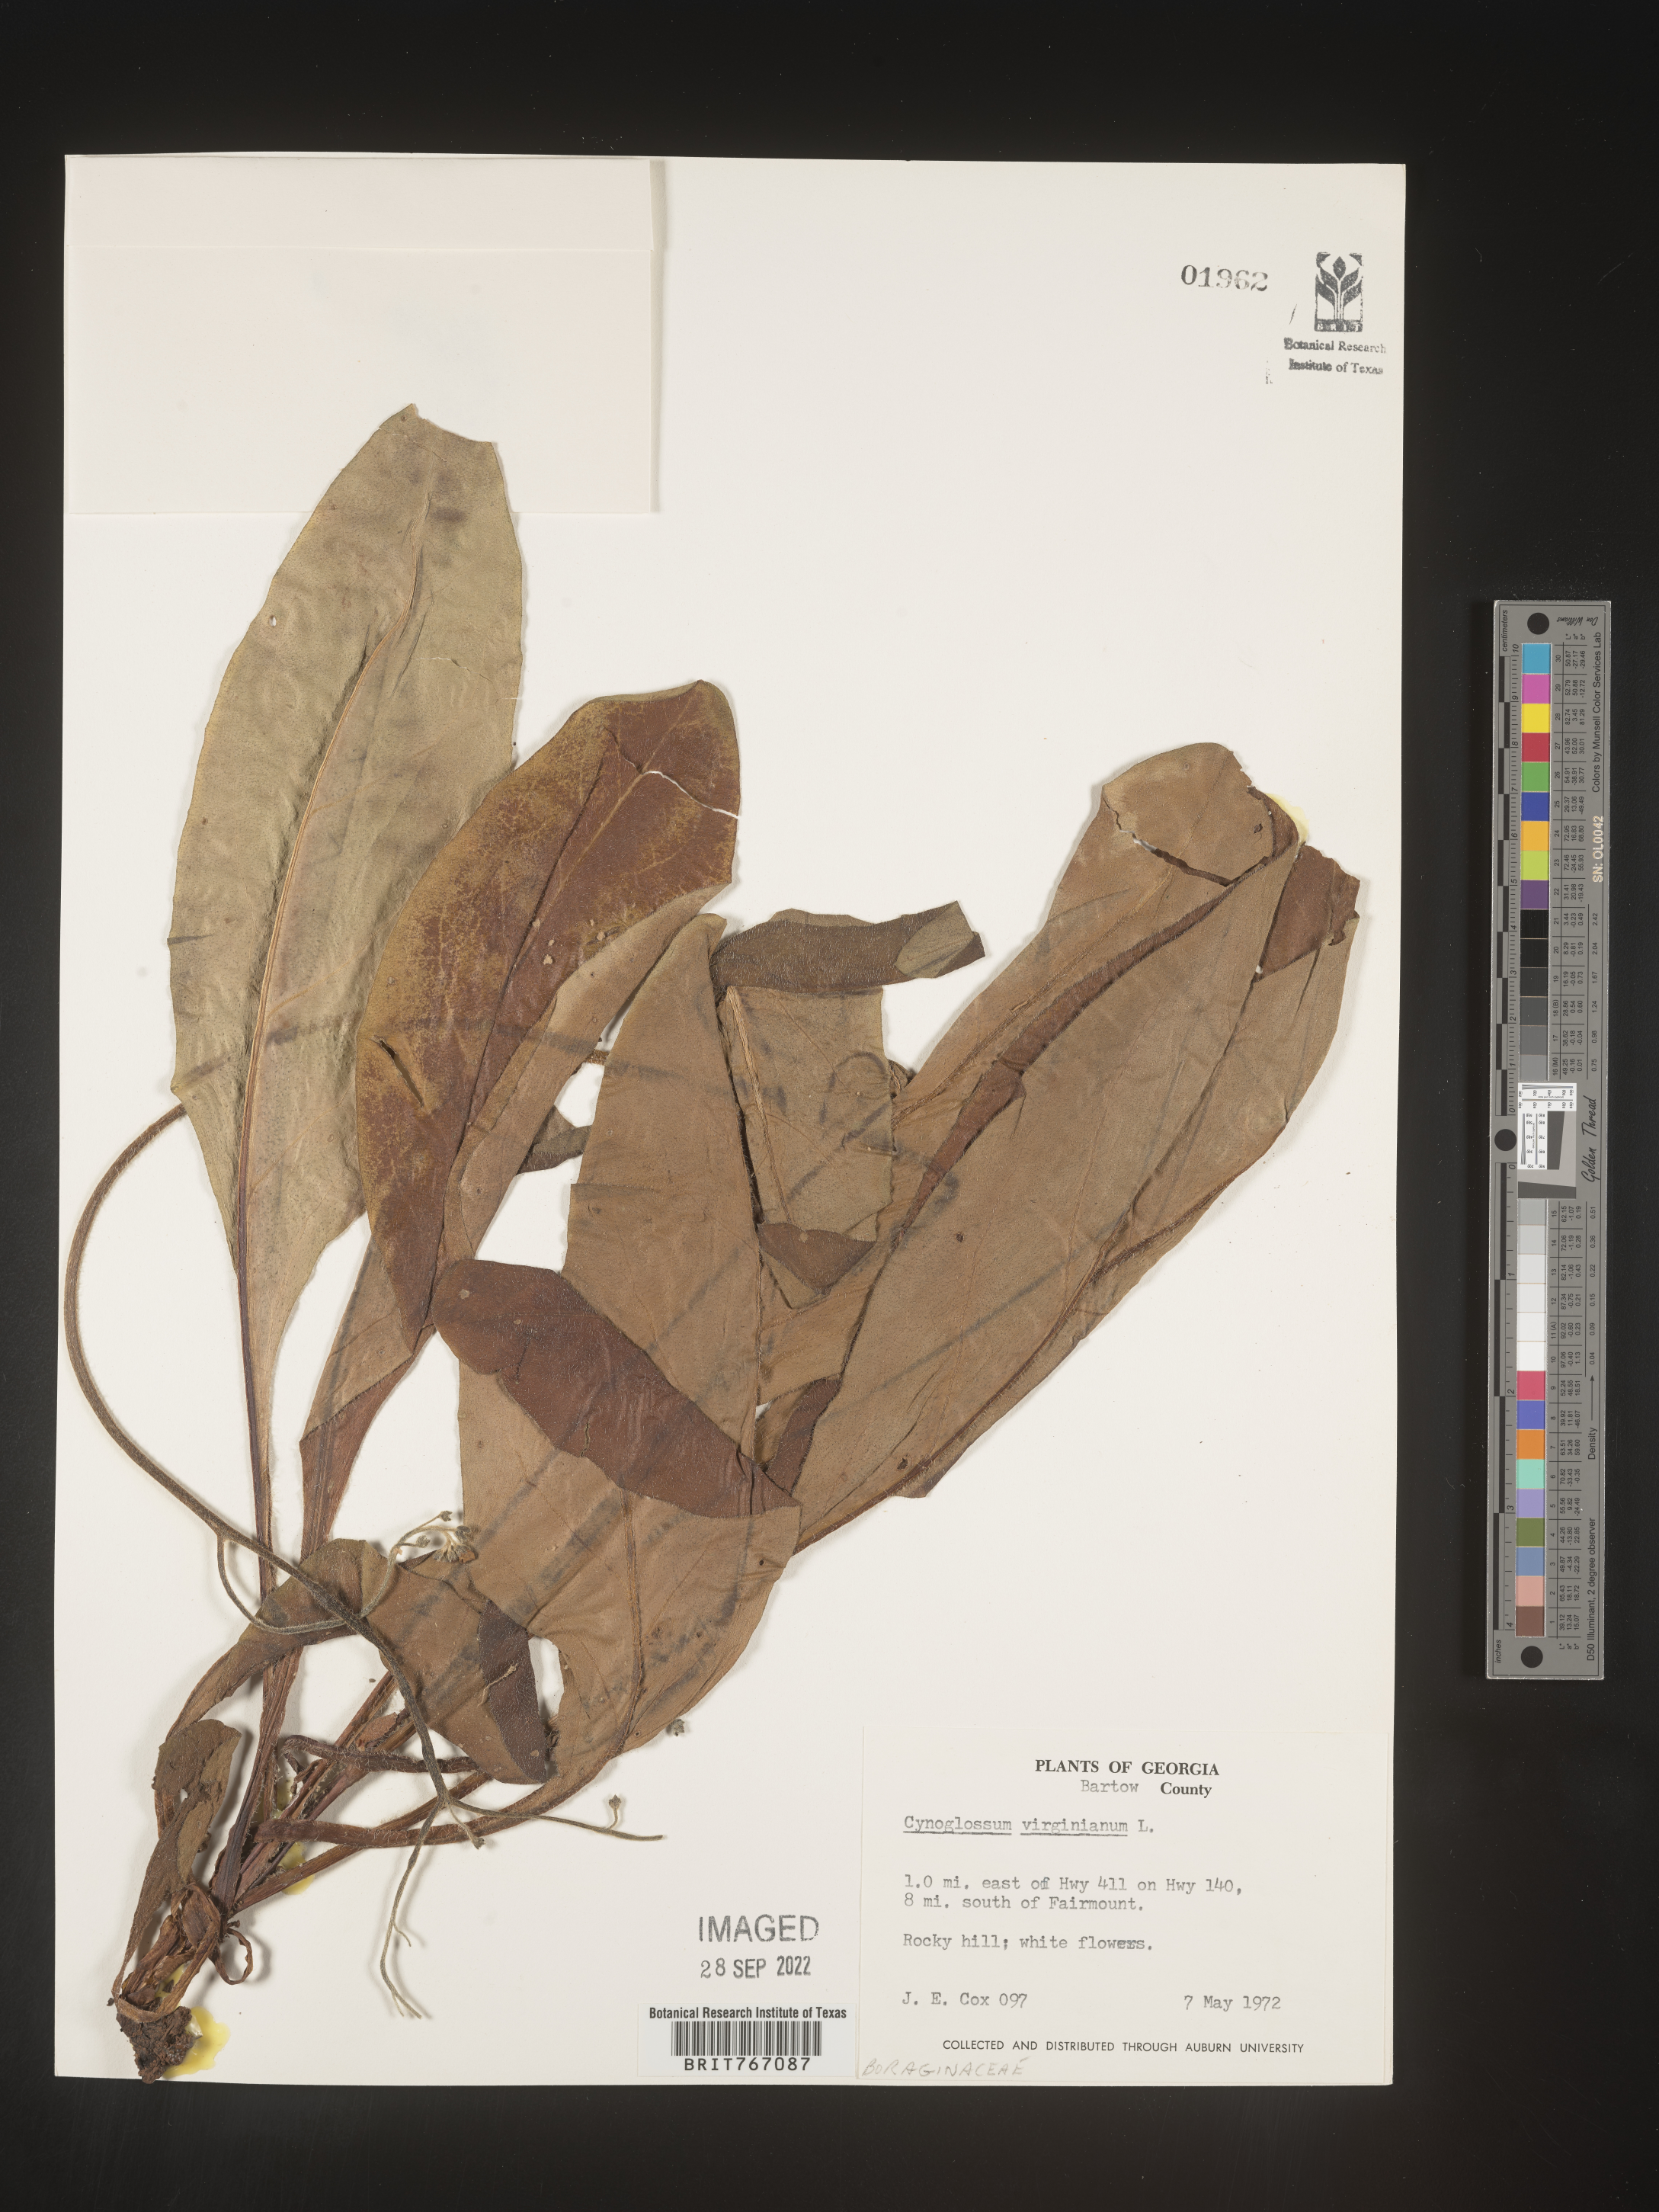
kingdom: Plantae
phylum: Tracheophyta
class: Magnoliopsida
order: Boraginales
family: Boraginaceae
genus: Andersonglossum
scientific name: Andersonglossum virginianum
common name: Wild comfrey
